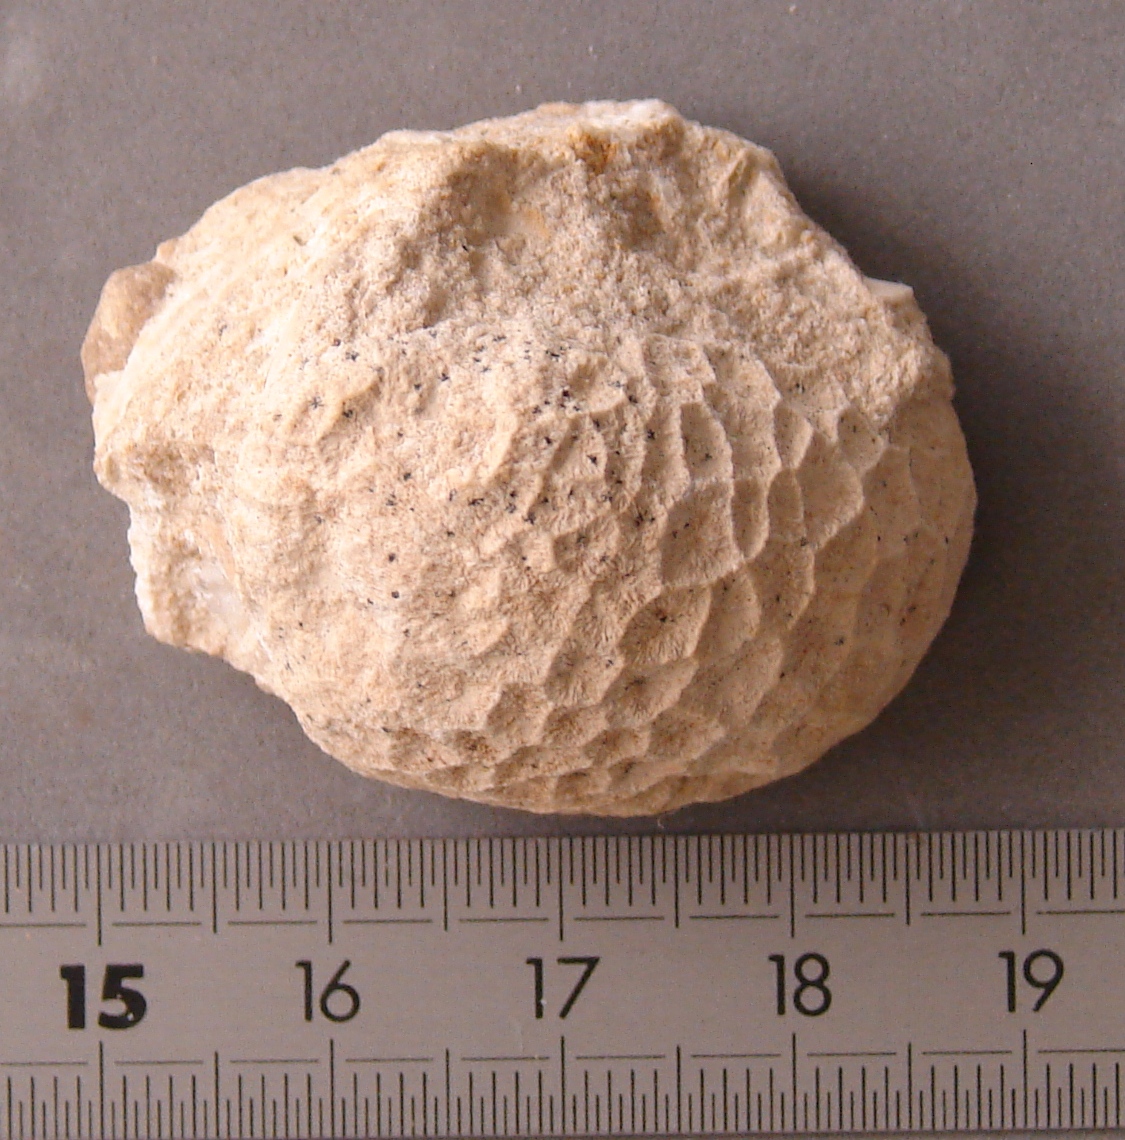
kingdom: Animalia
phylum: Cnidaria
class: Anthozoa
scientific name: Anthozoa
